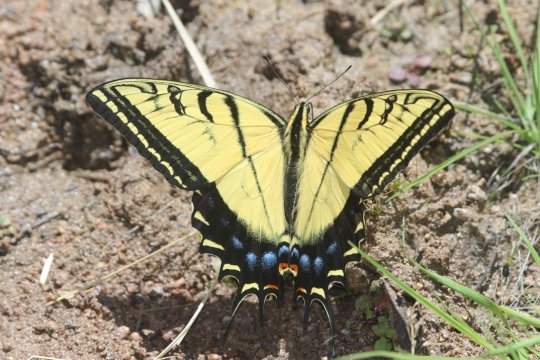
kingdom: Animalia
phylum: Arthropoda
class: Insecta
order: Lepidoptera
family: Papilionidae
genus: Papilio
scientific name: Papilio multicaudata
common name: Two-tailed Swallowtail
